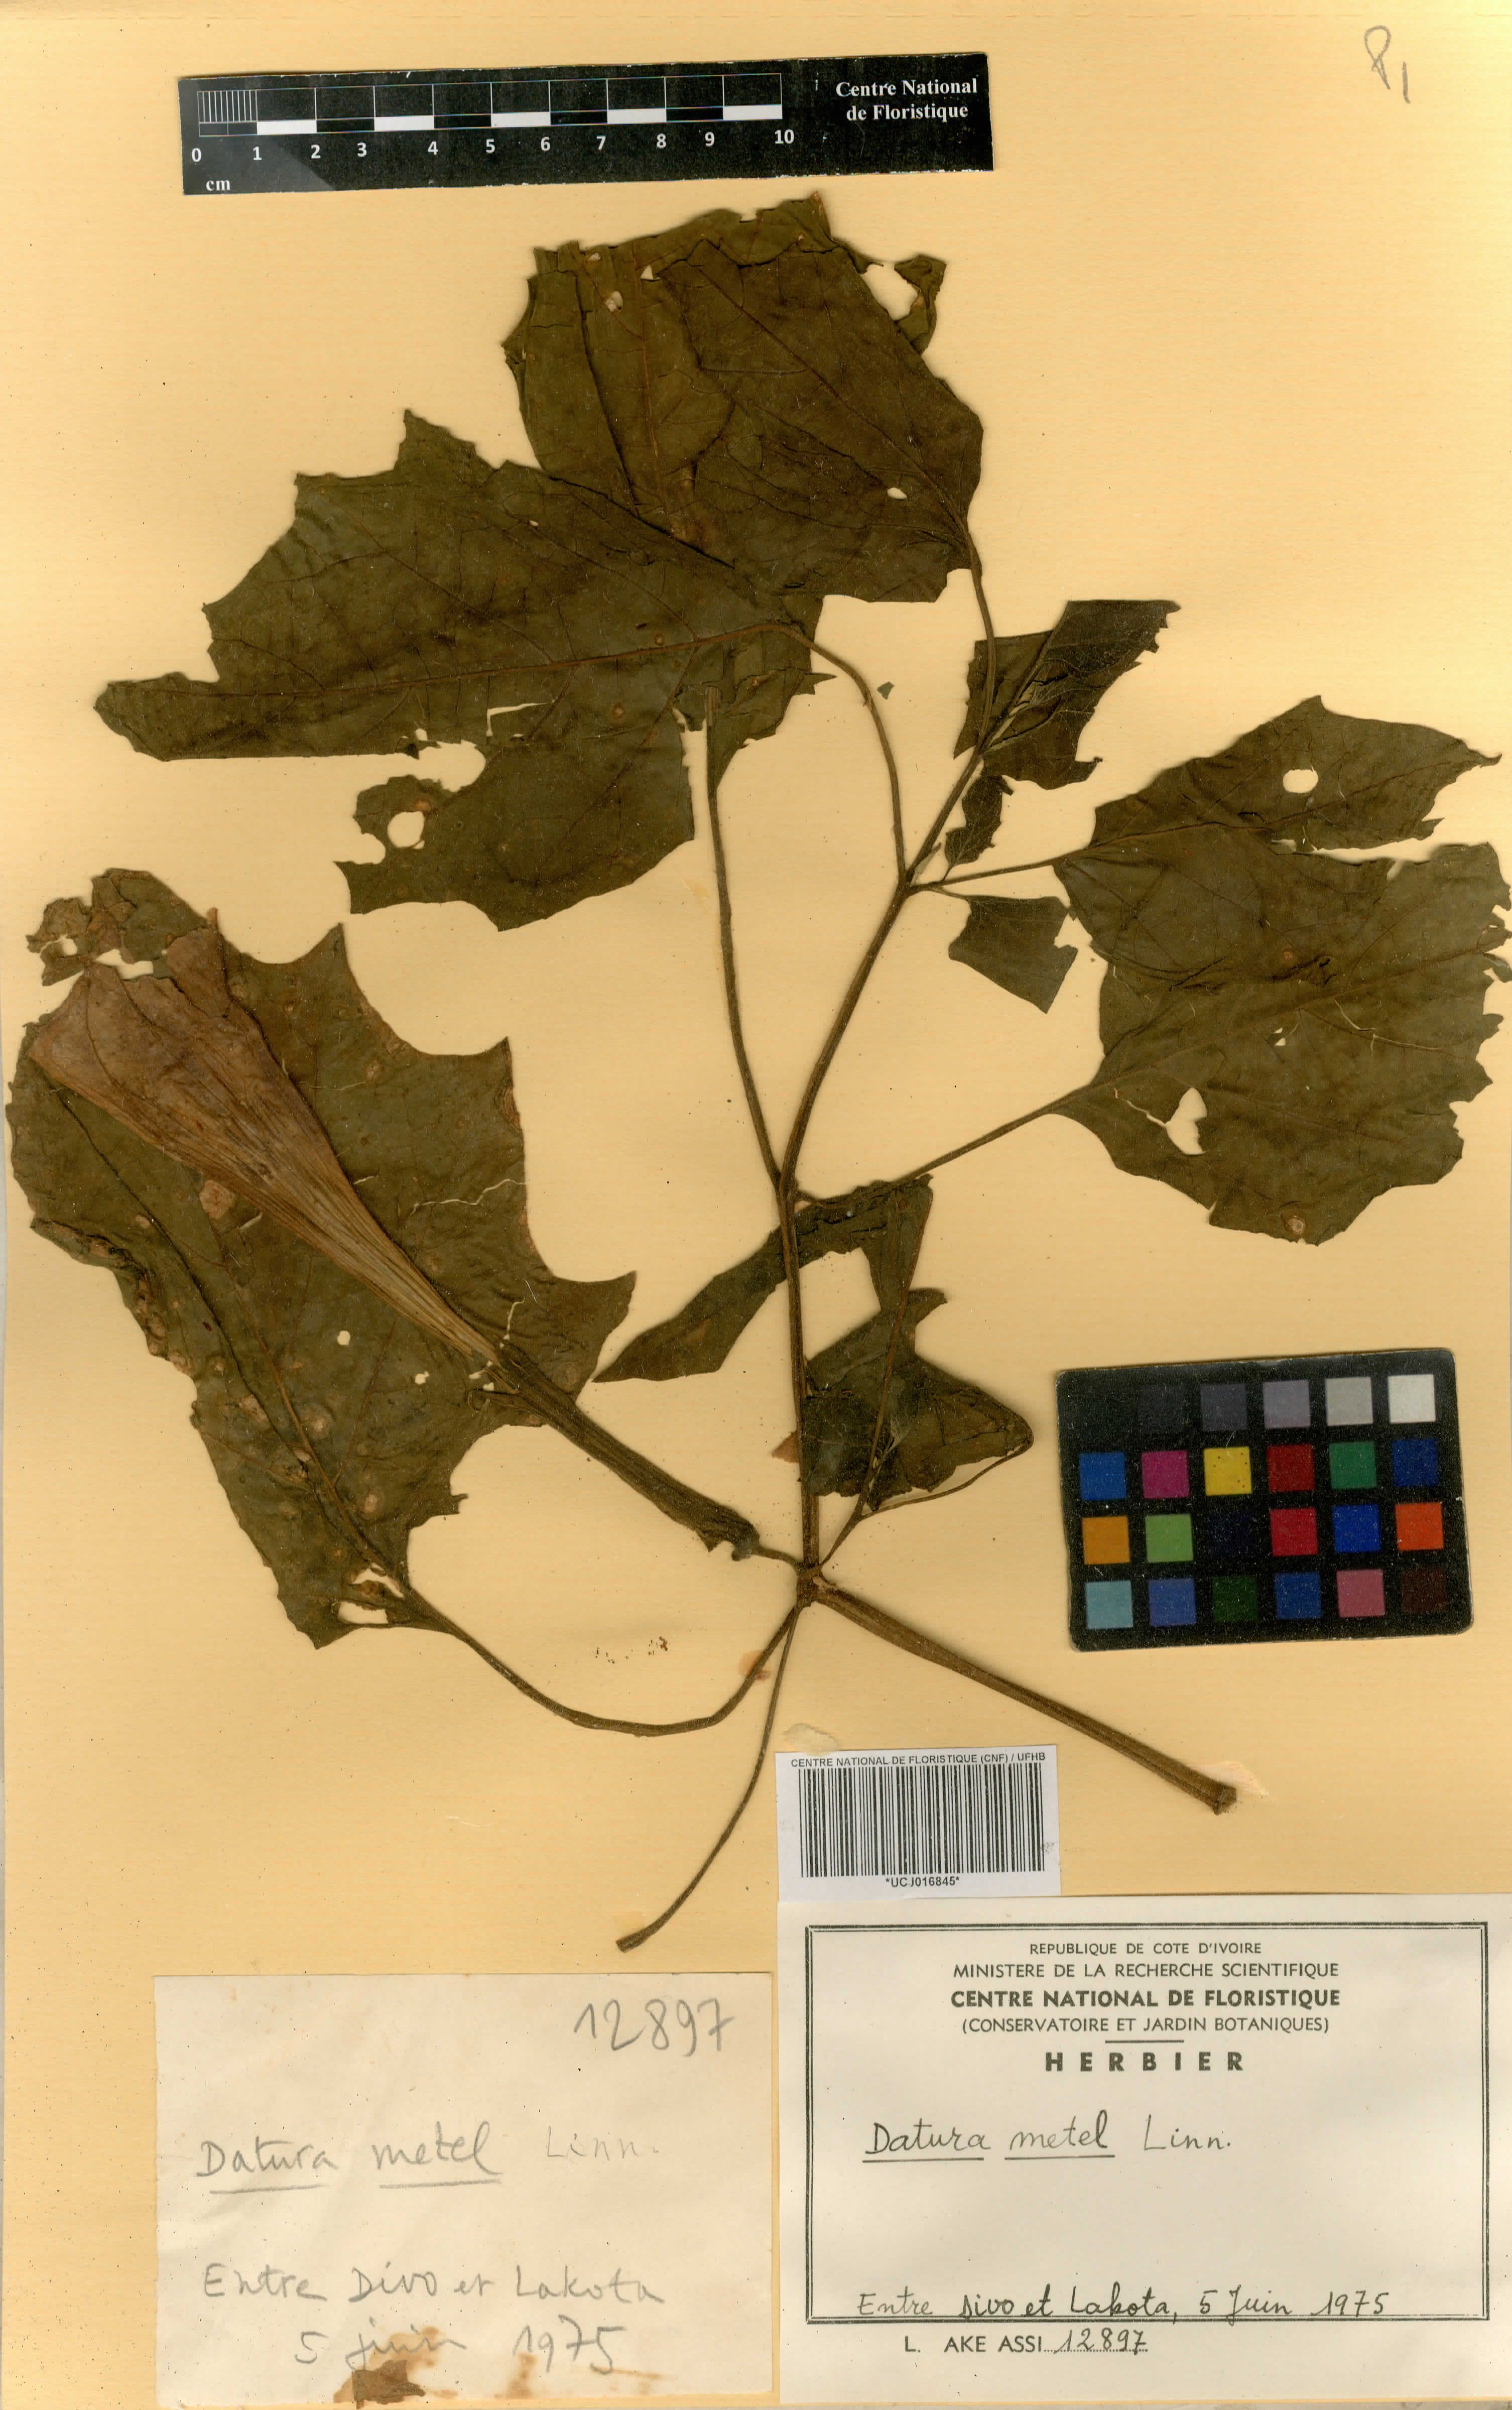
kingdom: Plantae
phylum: Tracheophyta
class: Magnoliopsida
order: Solanales
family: Solanaceae
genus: Datura
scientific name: Datura metel
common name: Jimsonweed
